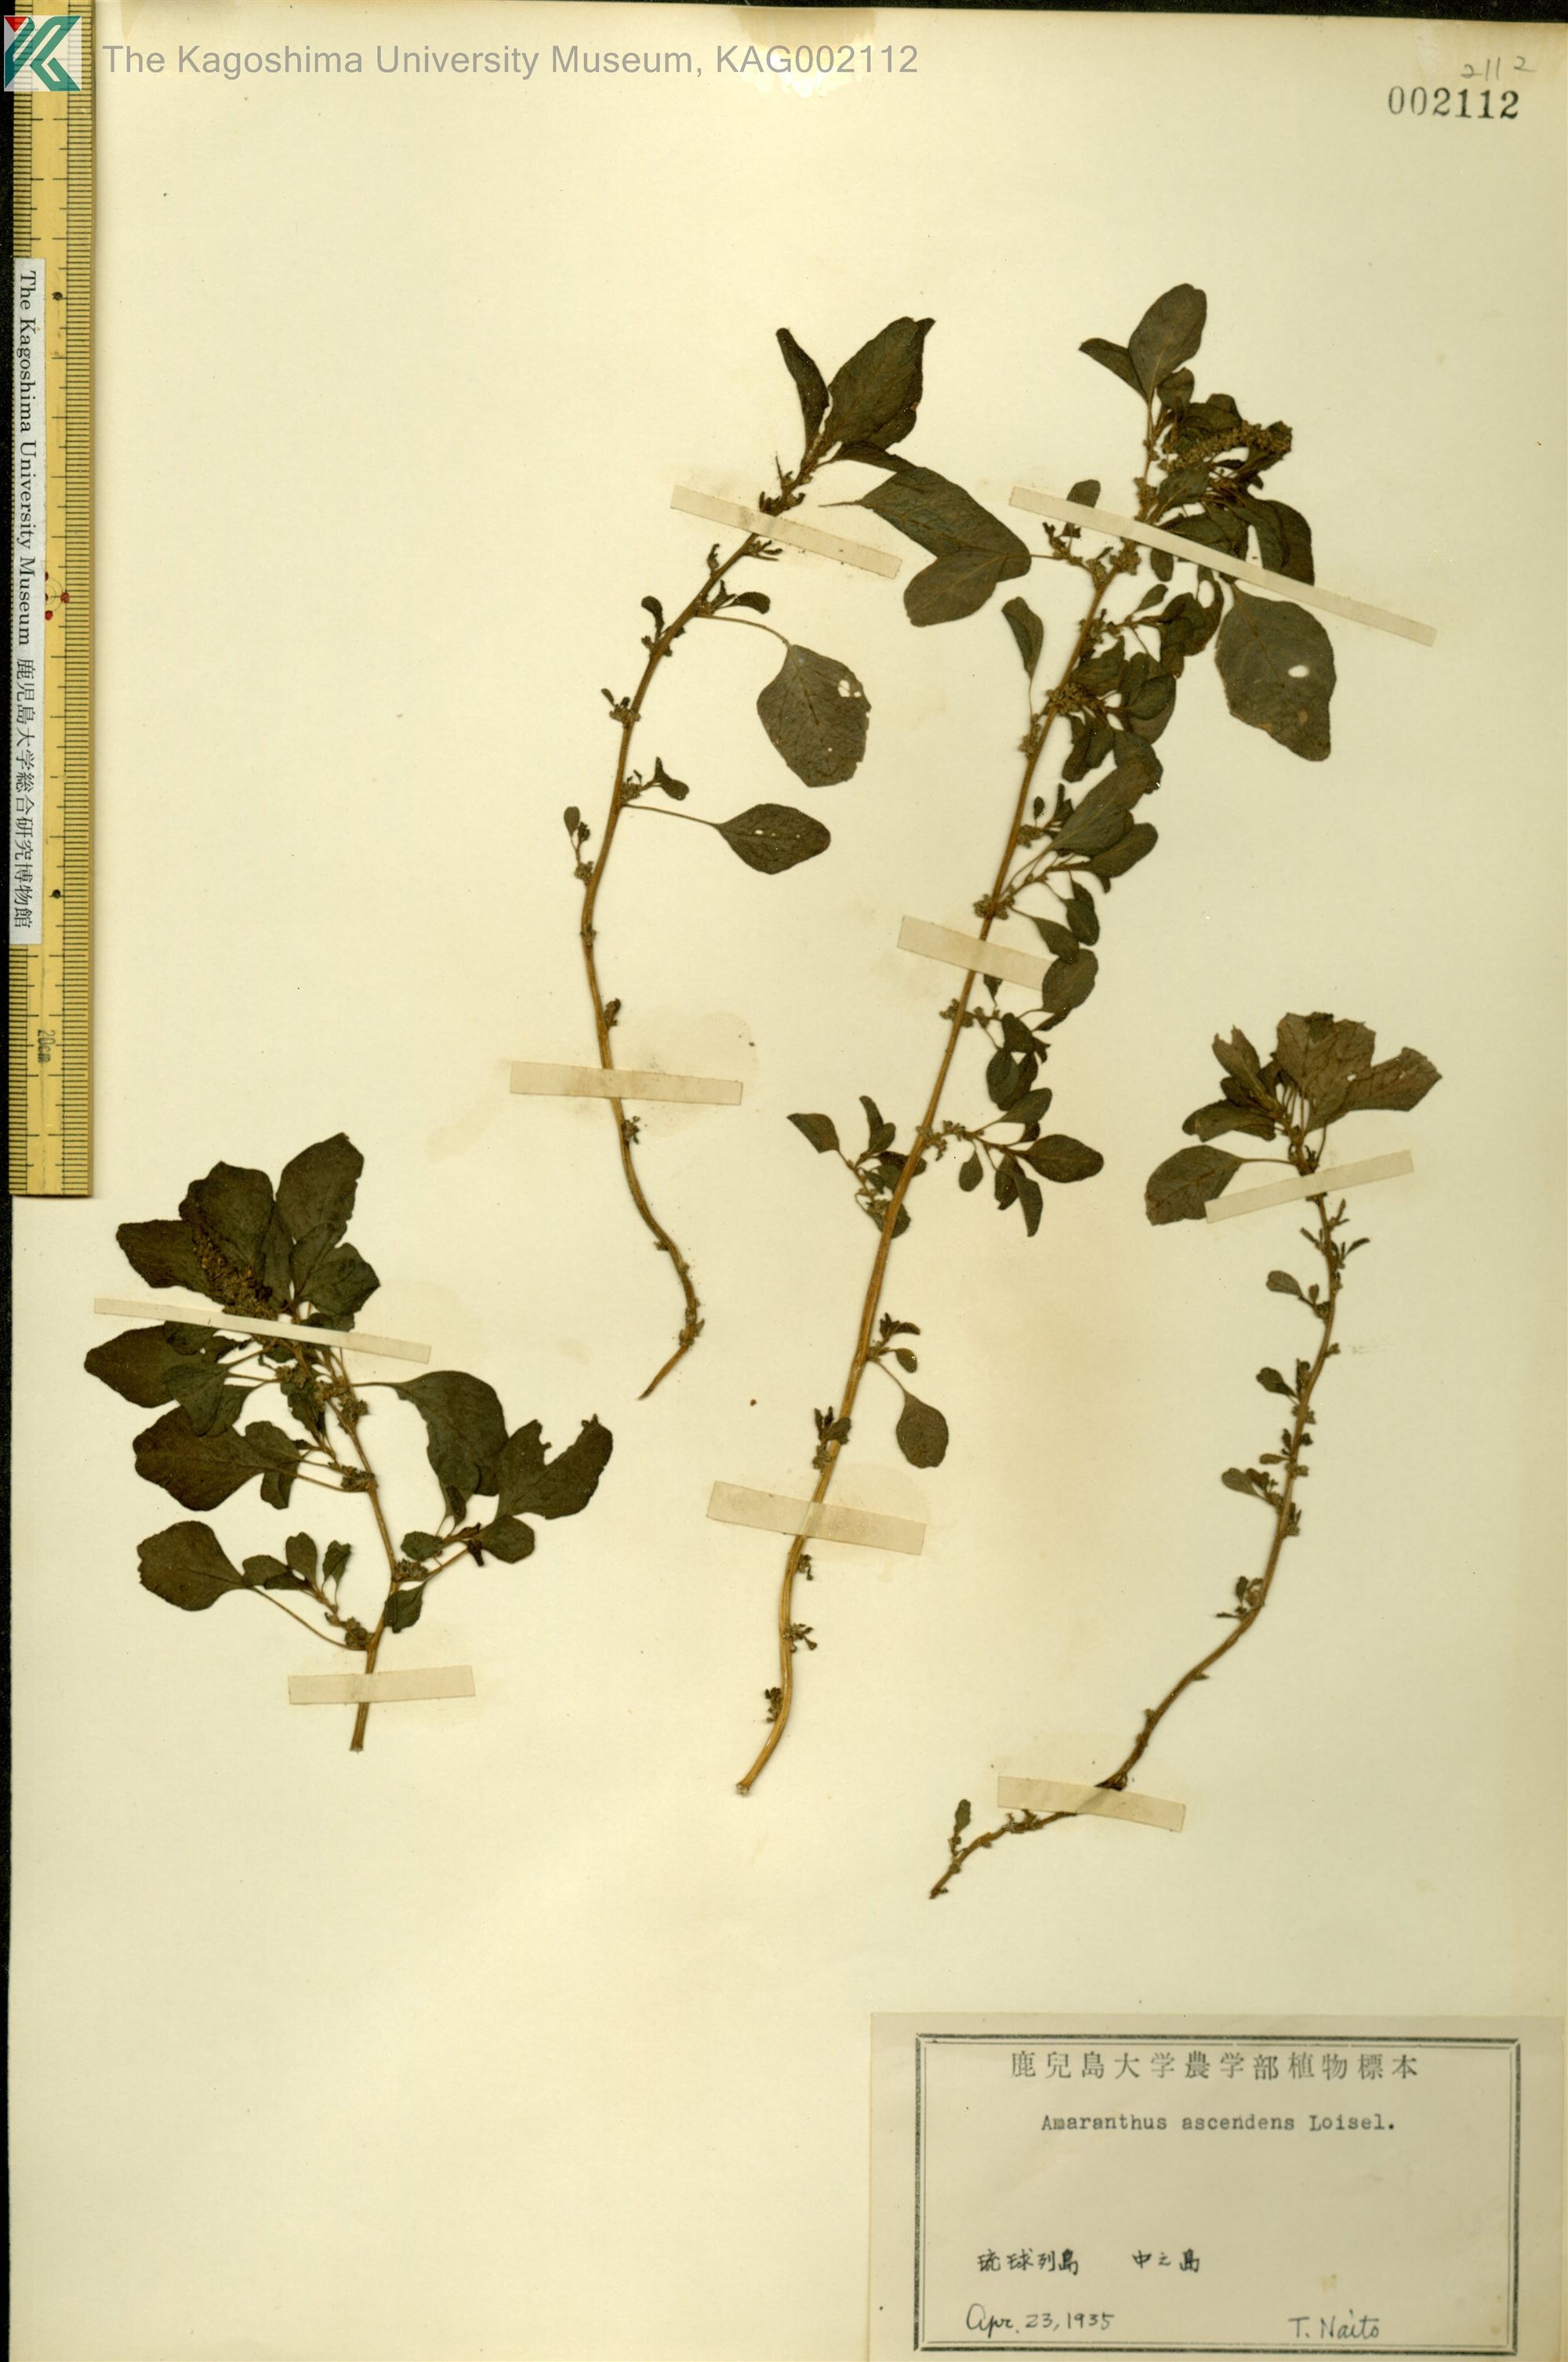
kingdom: Plantae
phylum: Tracheophyta
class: Magnoliopsida
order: Caryophyllales
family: Amaranthaceae
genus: Amaranthus
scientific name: Amaranthus blitum
